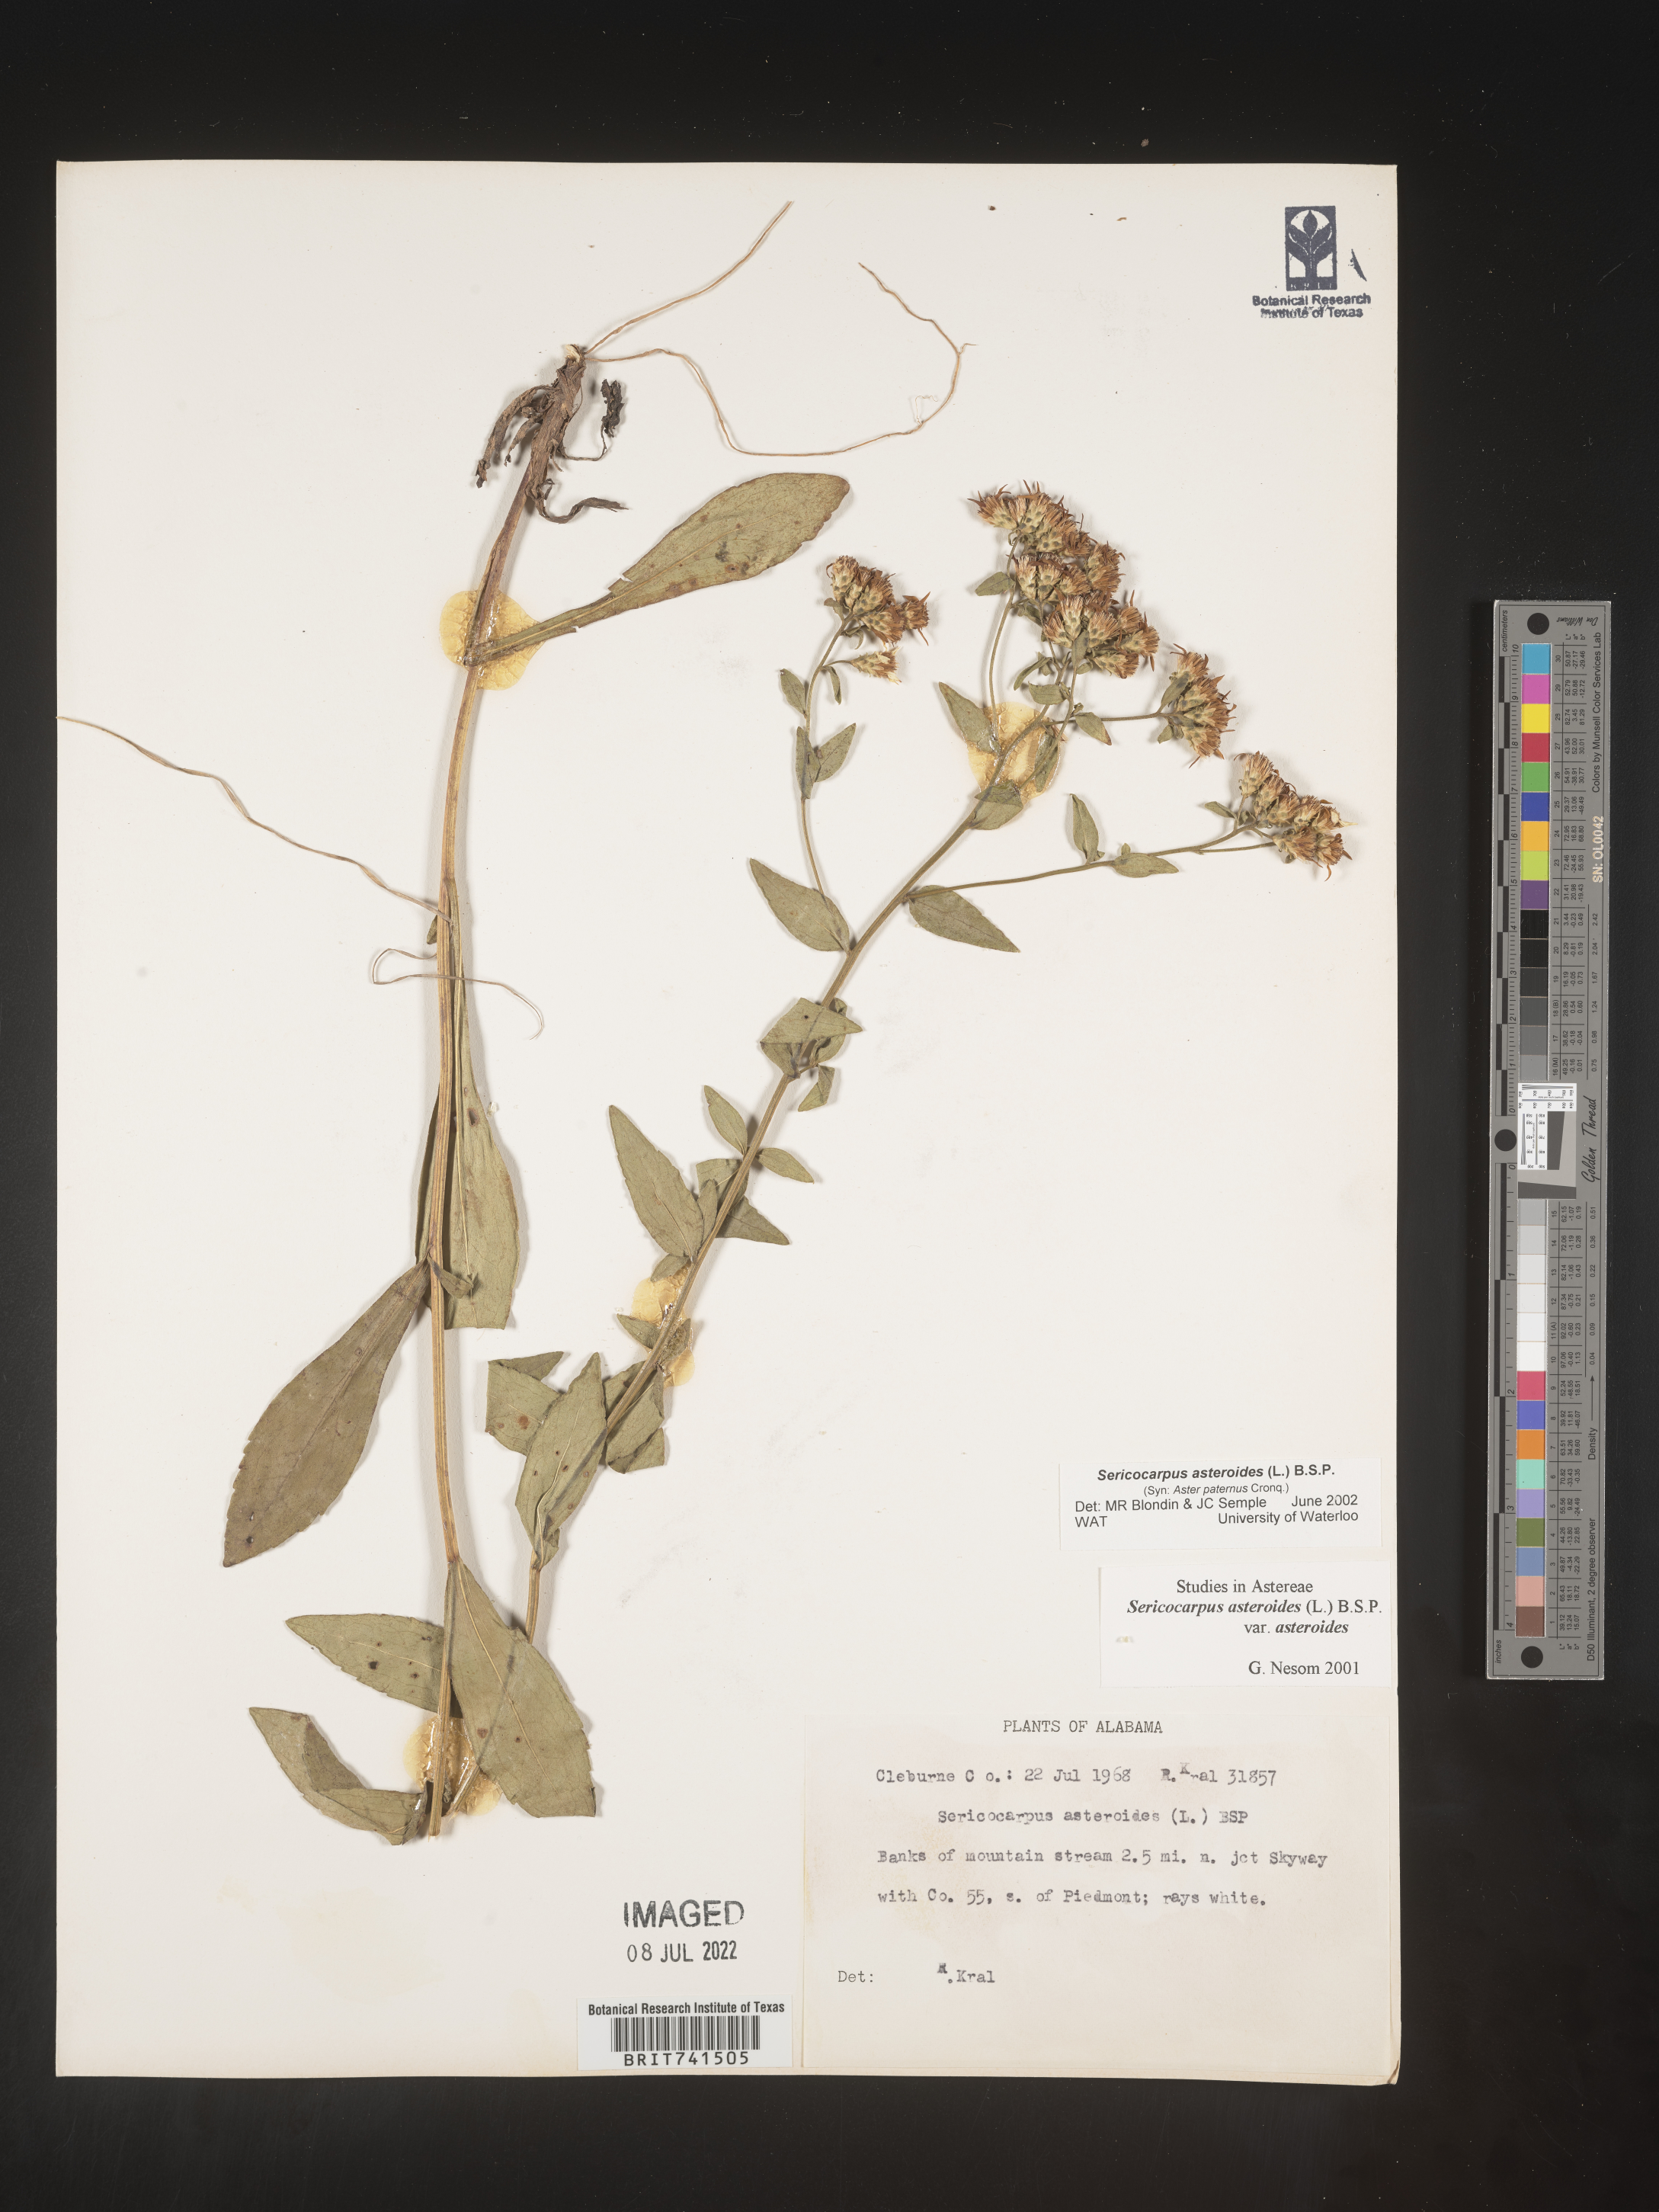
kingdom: Plantae
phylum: Tracheophyta
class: Magnoliopsida
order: Asterales
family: Asteraceae
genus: Sericocarpus
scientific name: Sericocarpus asteroides
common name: Toothed white-top aster
